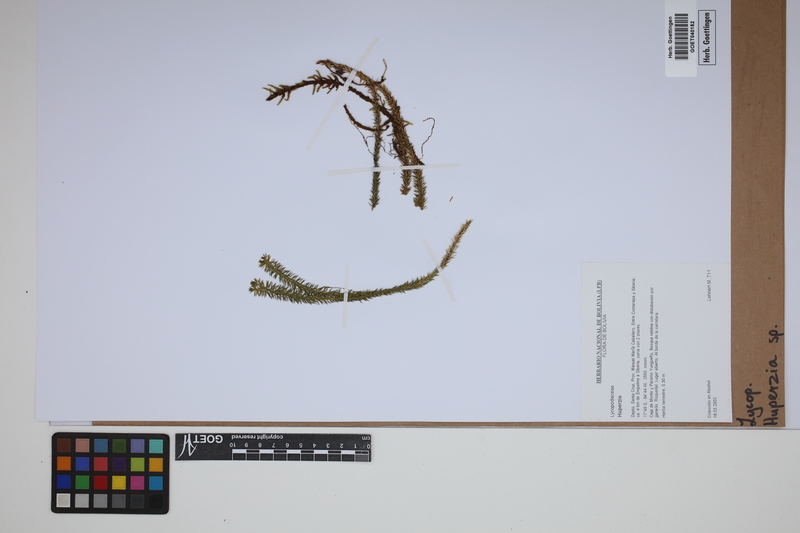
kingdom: Plantae
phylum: Tracheophyta
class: Lycopodiopsida
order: Lycopodiales
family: Lycopodiaceae
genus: Phlegmariurus
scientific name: Phlegmariurus
